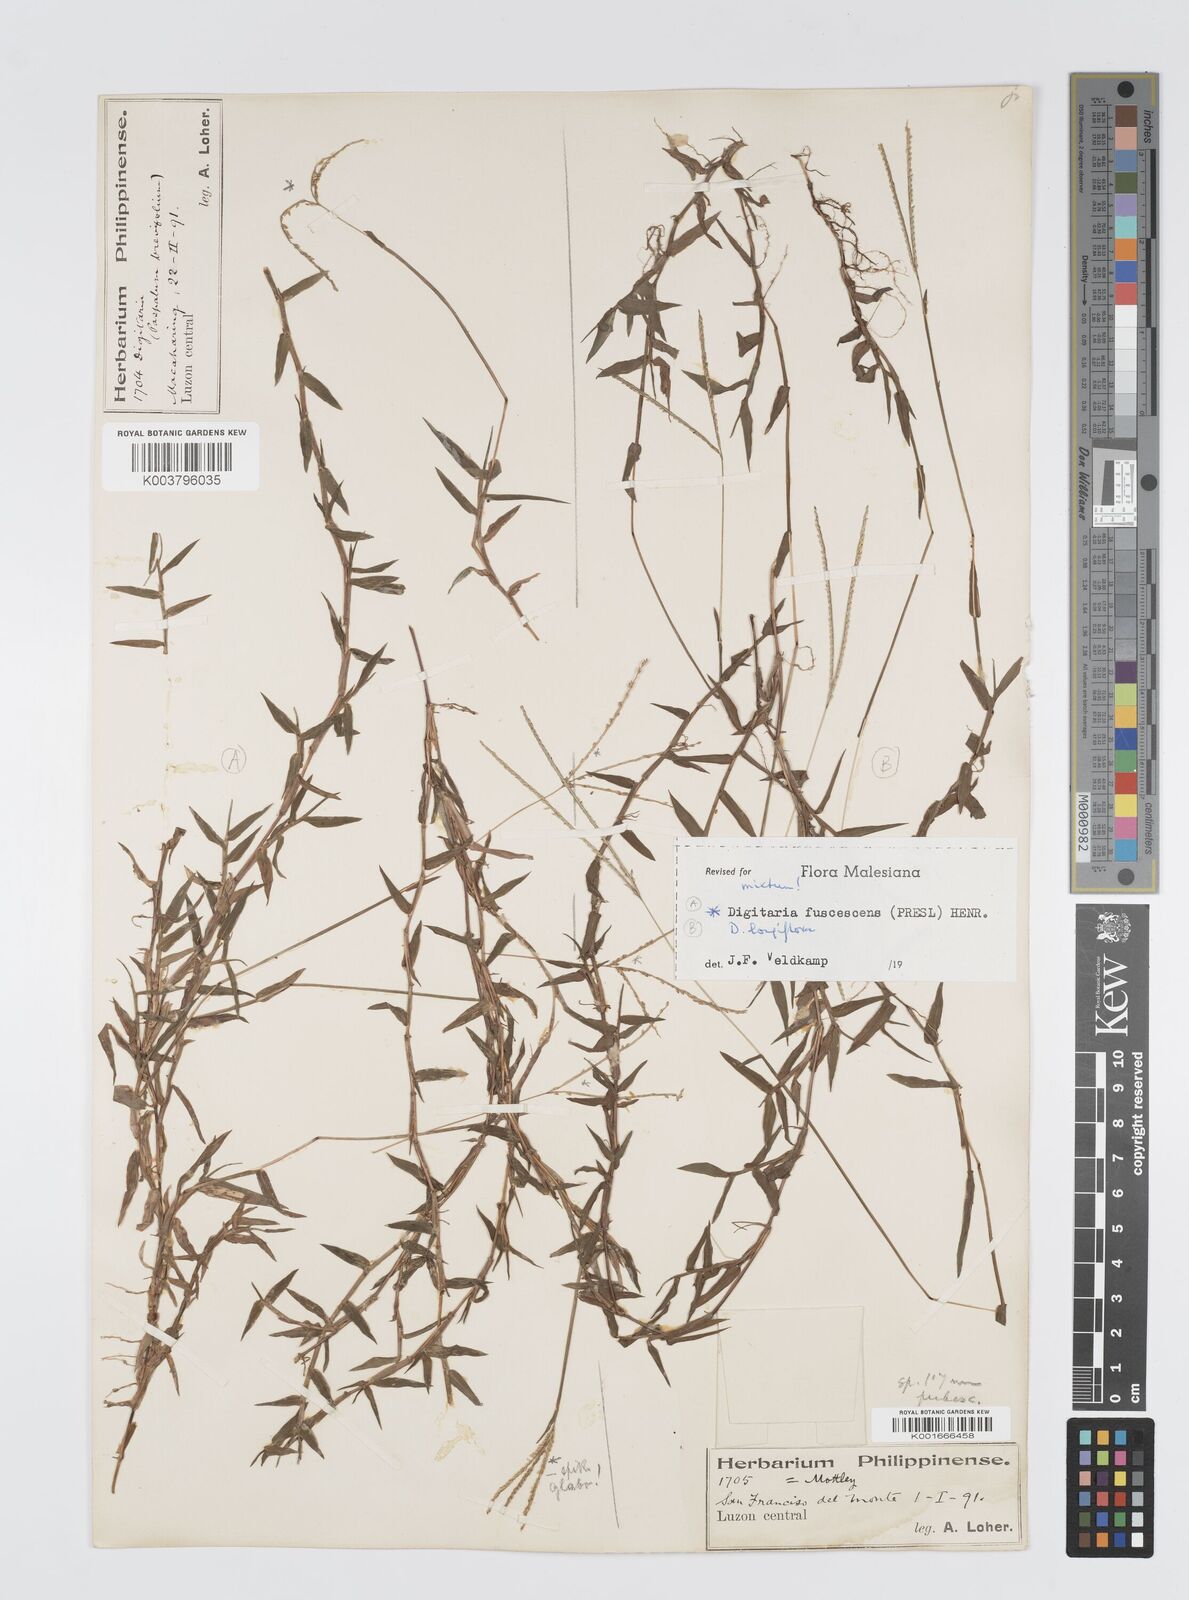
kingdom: Plantae
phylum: Tracheophyta
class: Liliopsida
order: Poales
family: Poaceae
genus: Digitaria
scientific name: Digitaria ciliaris
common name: Tropical finger-grass
